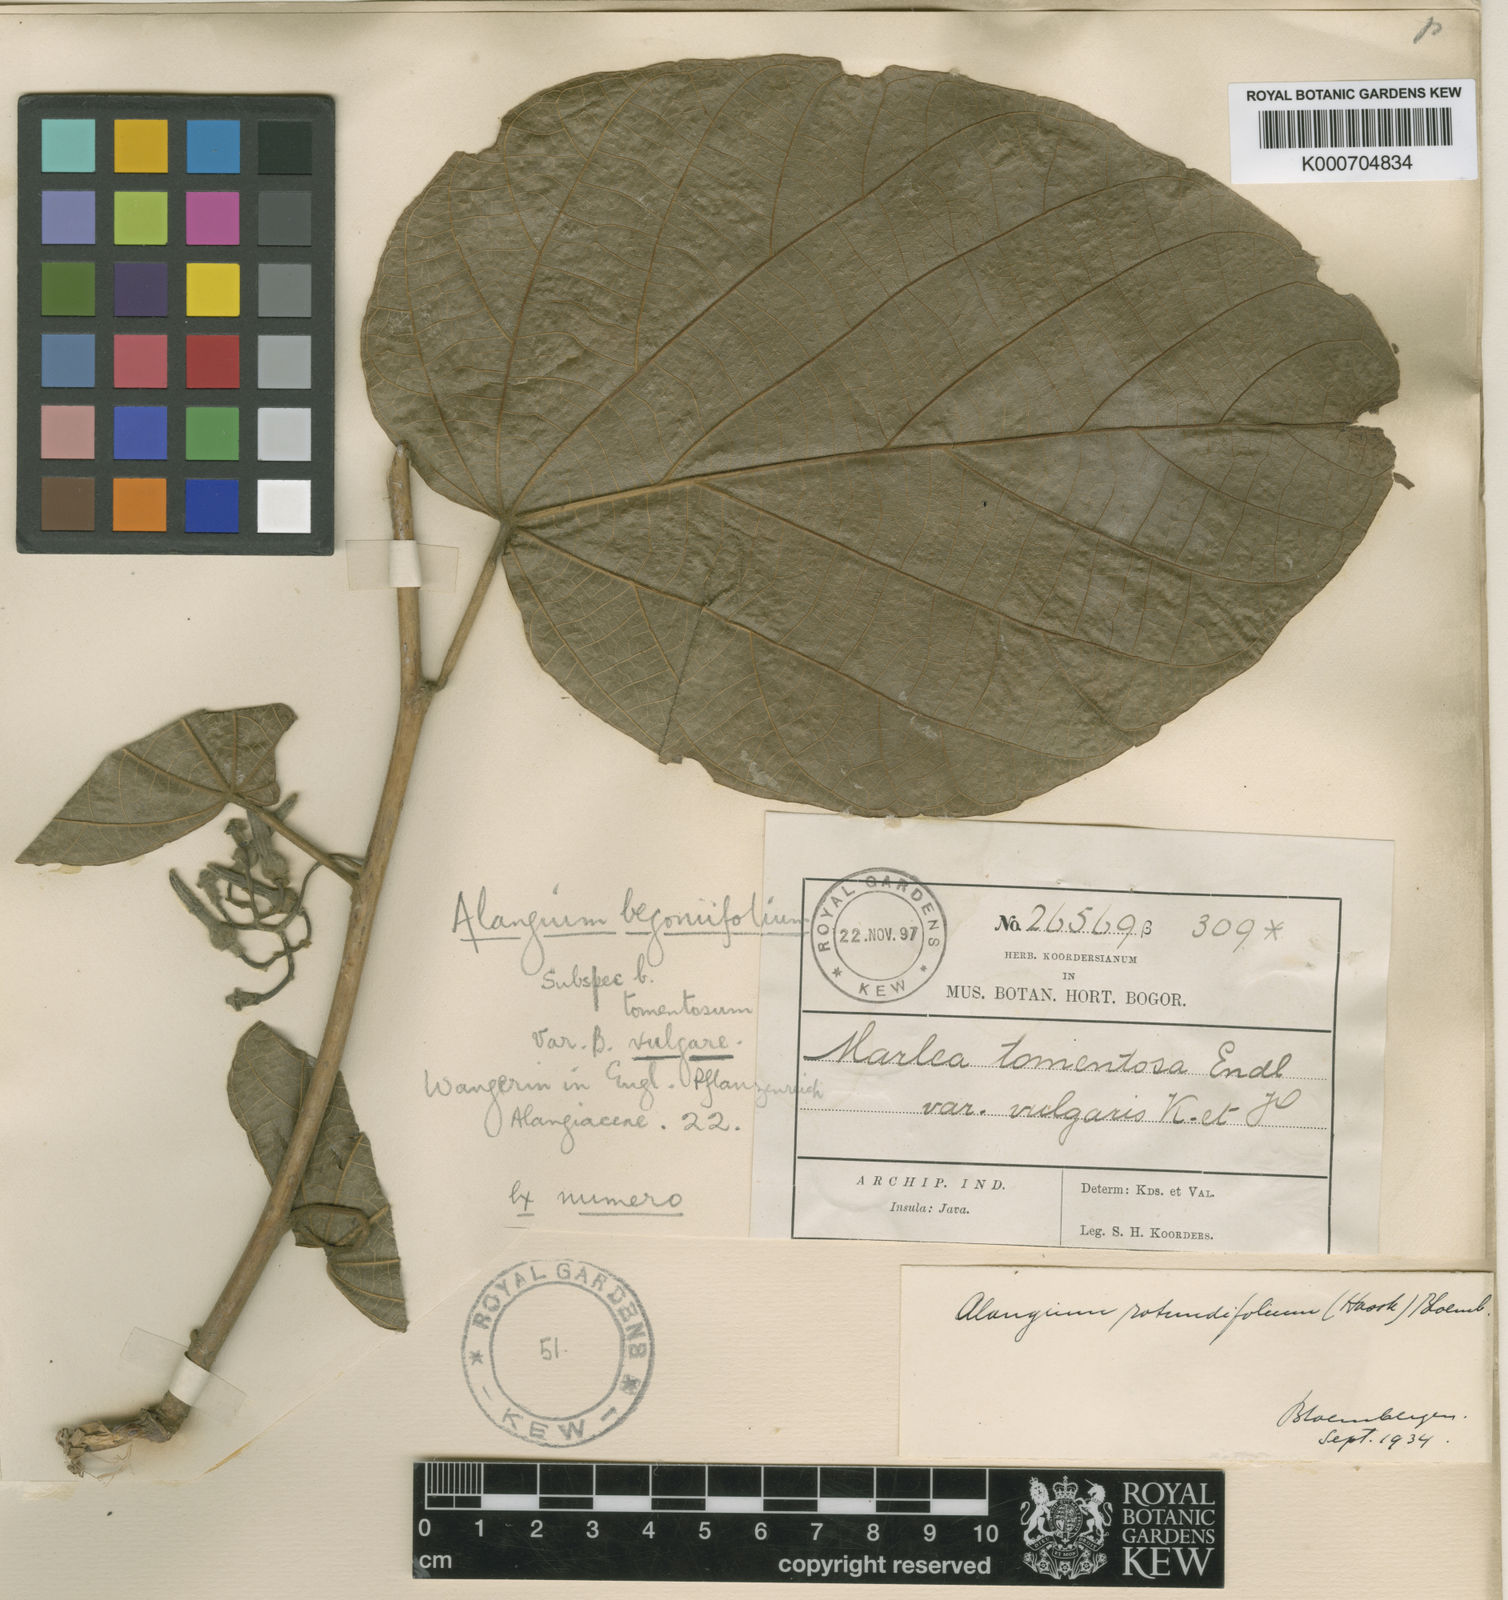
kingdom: Plantae
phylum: Tracheophyta
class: Magnoliopsida
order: Cornales
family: Cornaceae
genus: Alangium
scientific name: Alangium rotundifolium
